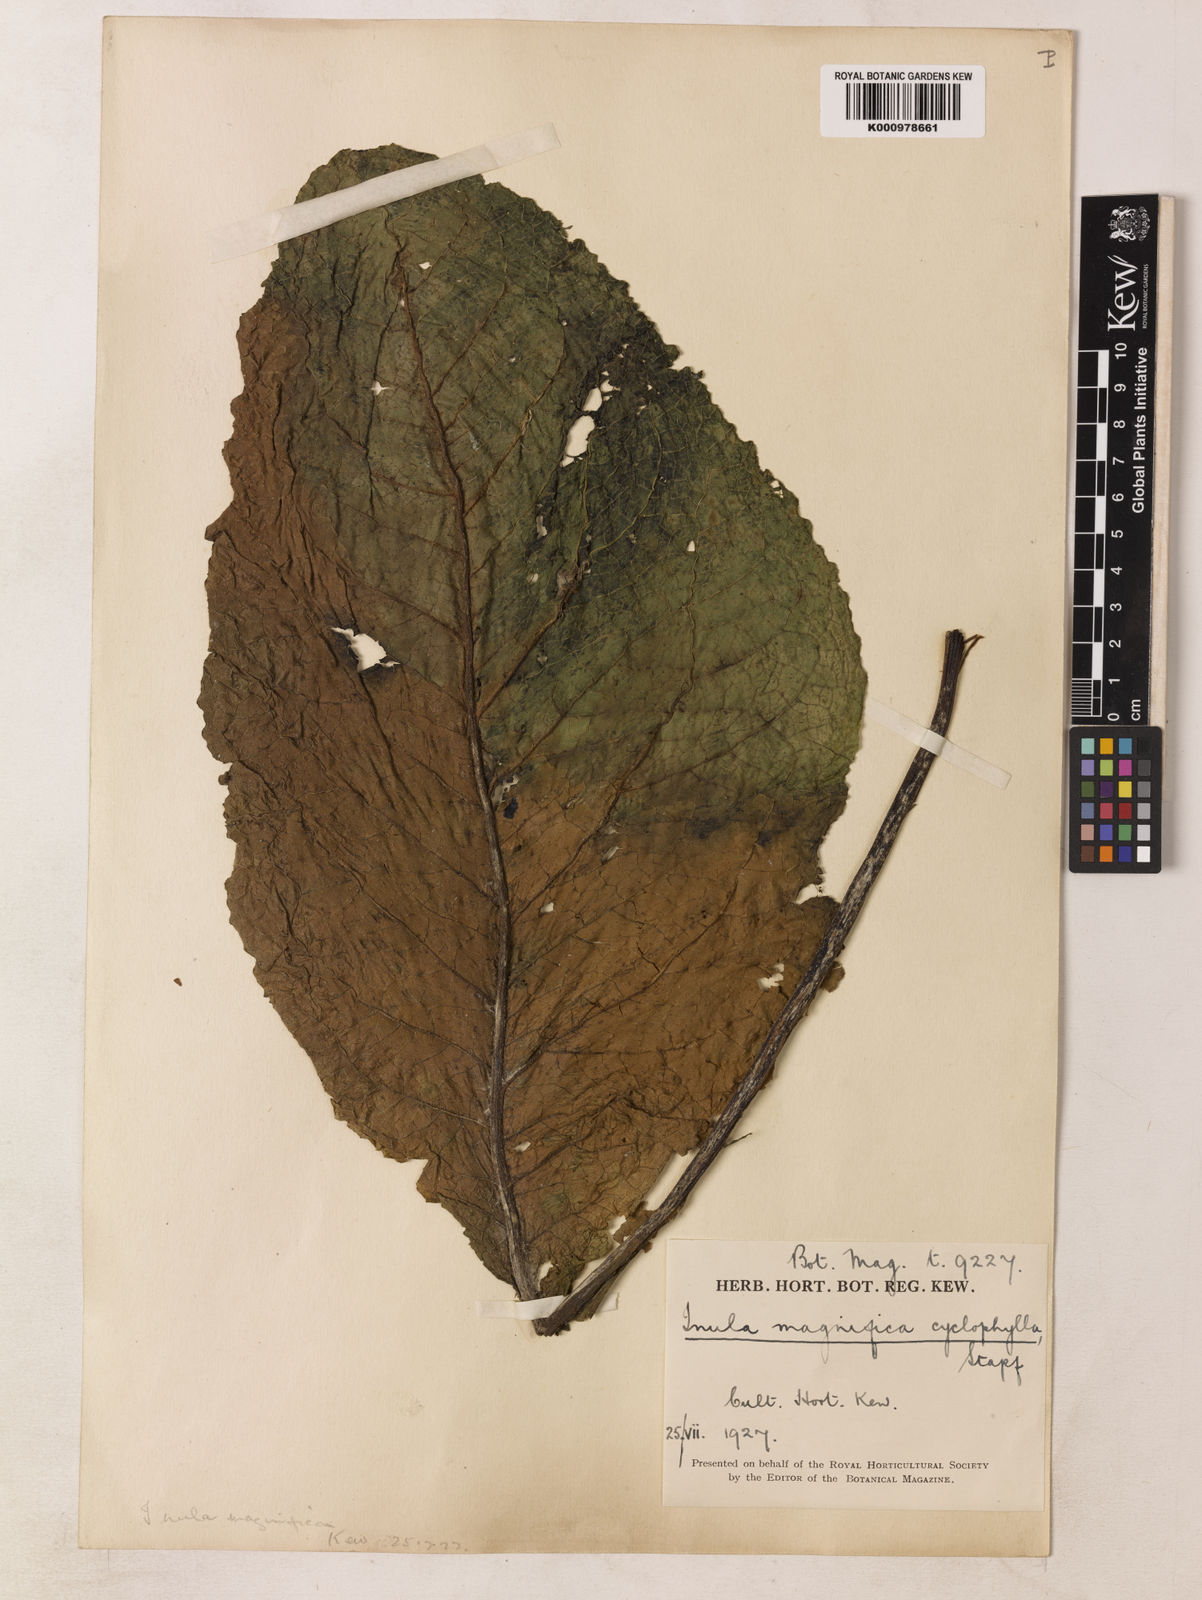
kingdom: Plantae
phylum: Tracheophyta
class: Magnoliopsida
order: Asterales
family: Asteraceae
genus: Inula
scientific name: Inula magnifica
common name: Giant fleabane
